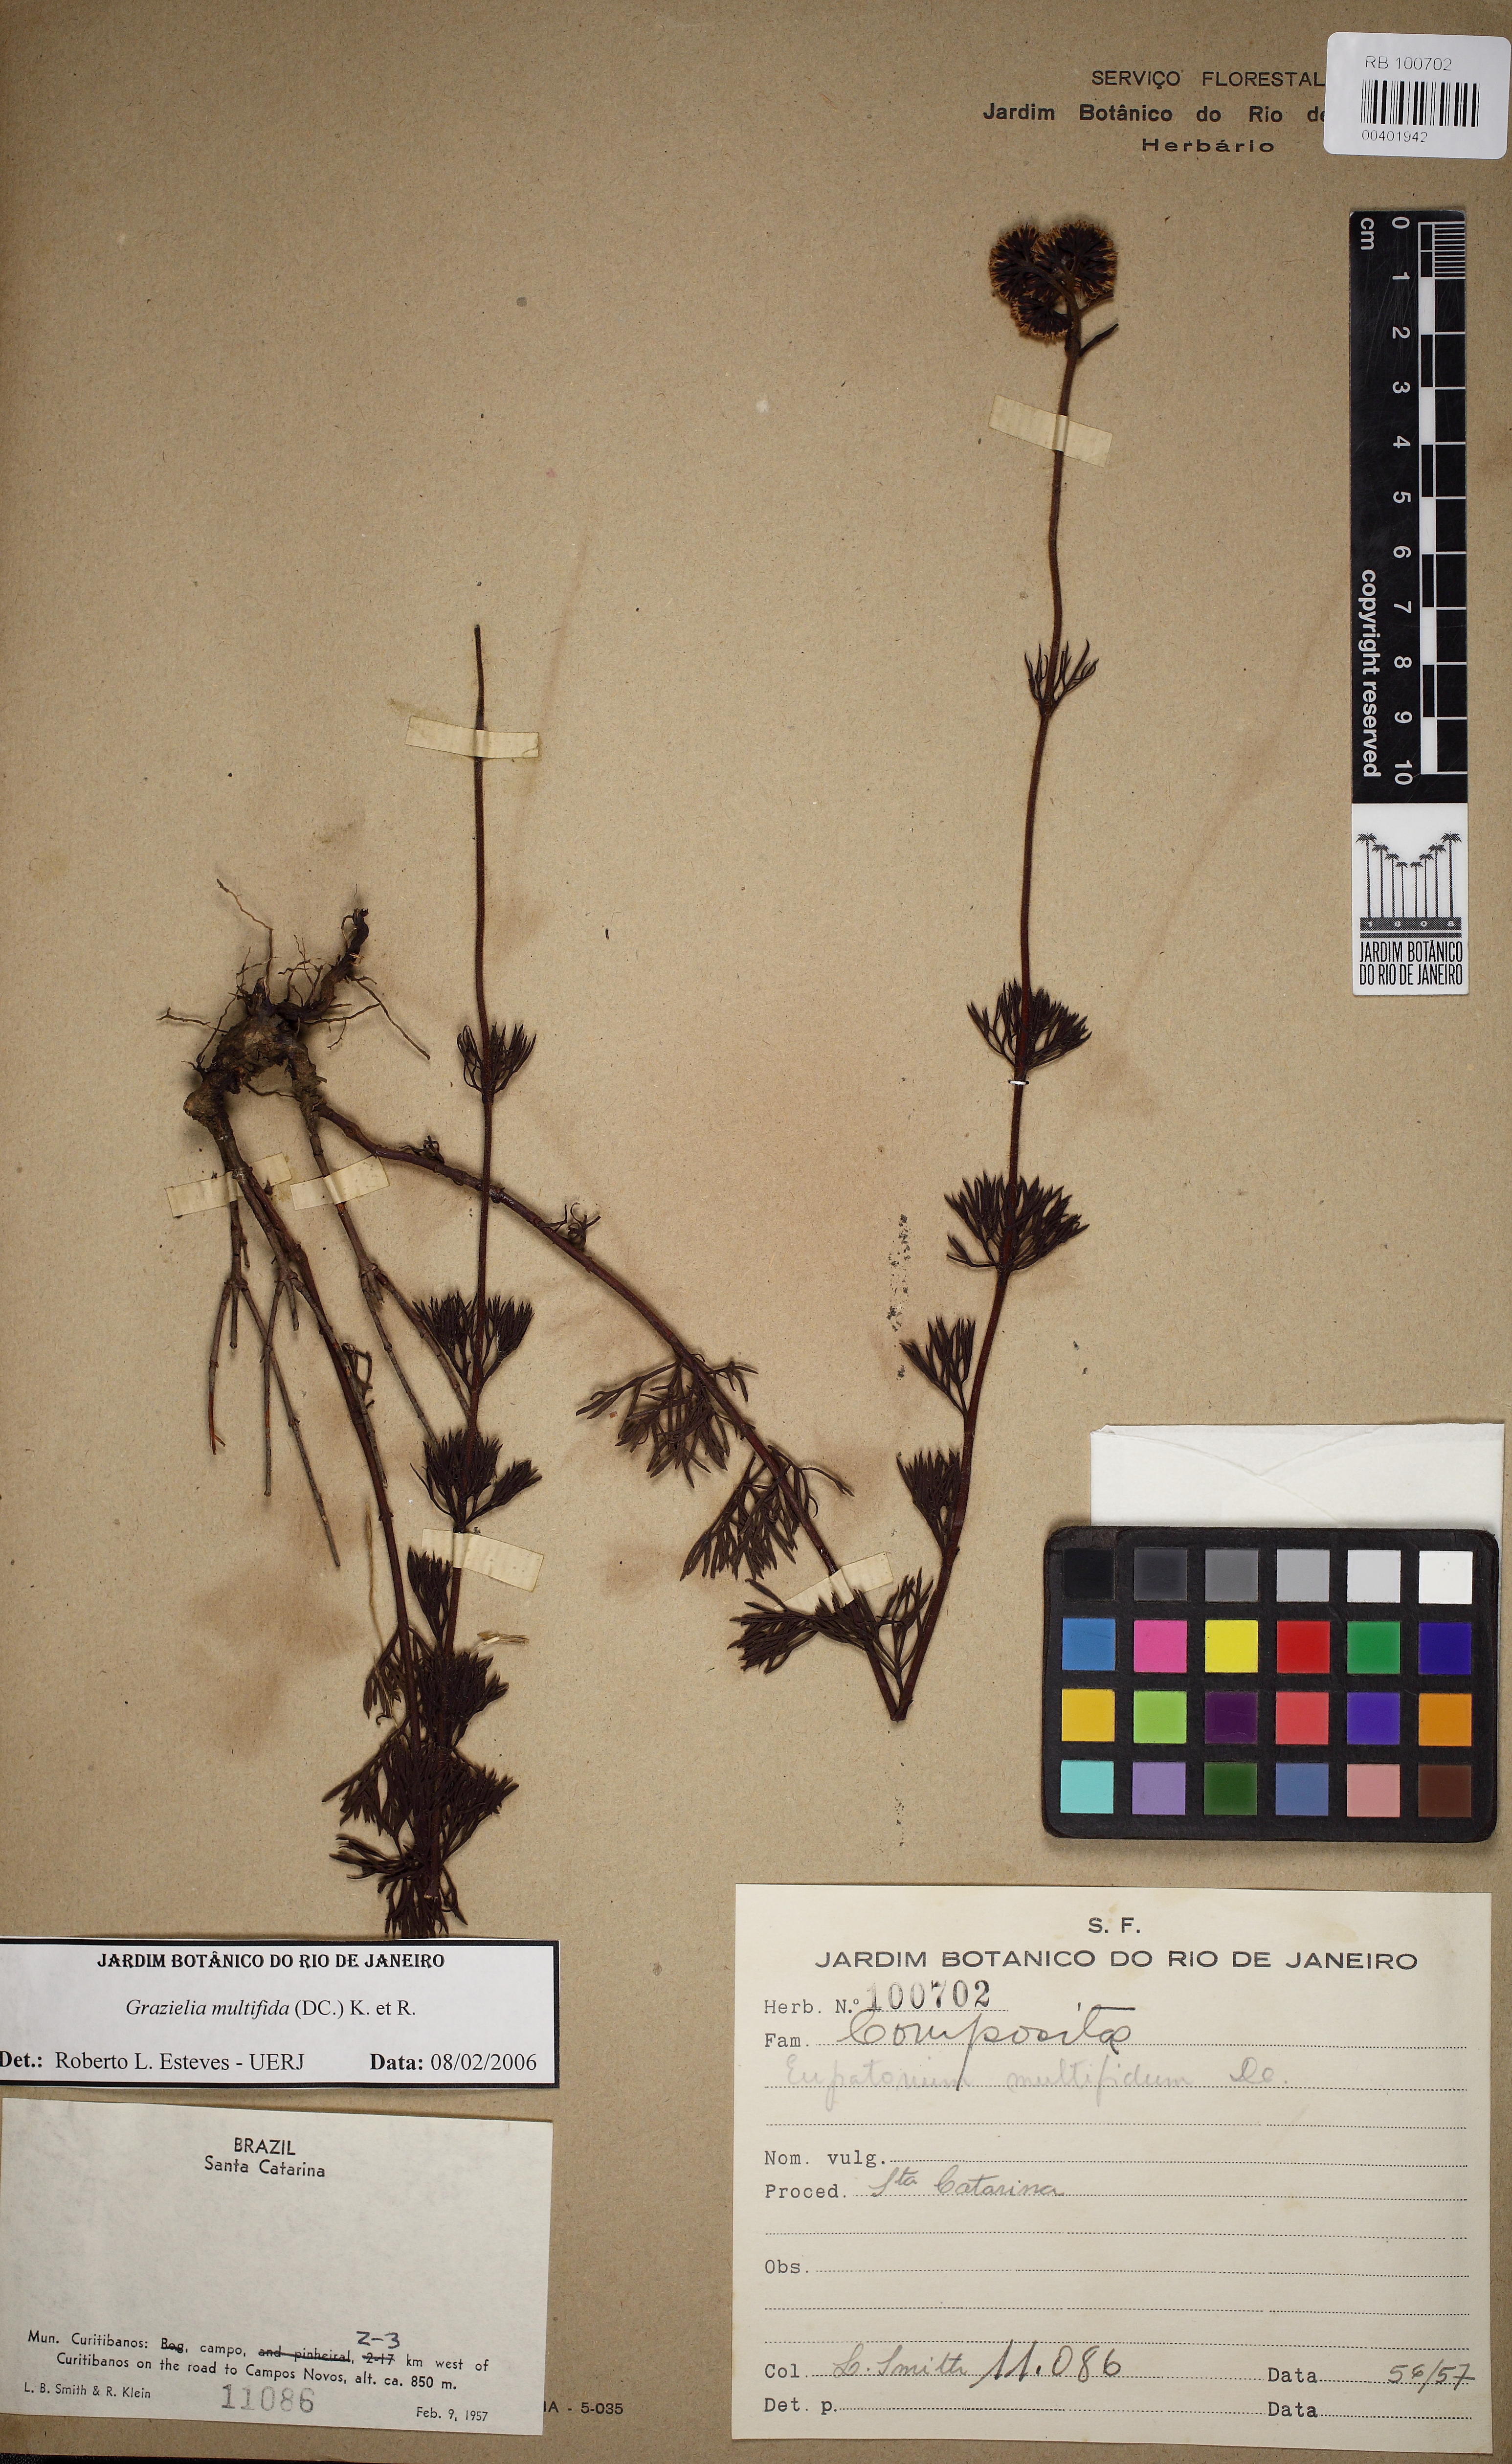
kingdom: Plantae
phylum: Tracheophyta
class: Magnoliopsida
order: Asterales
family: Asteraceae
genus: Grazielia
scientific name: Grazielia multifida
